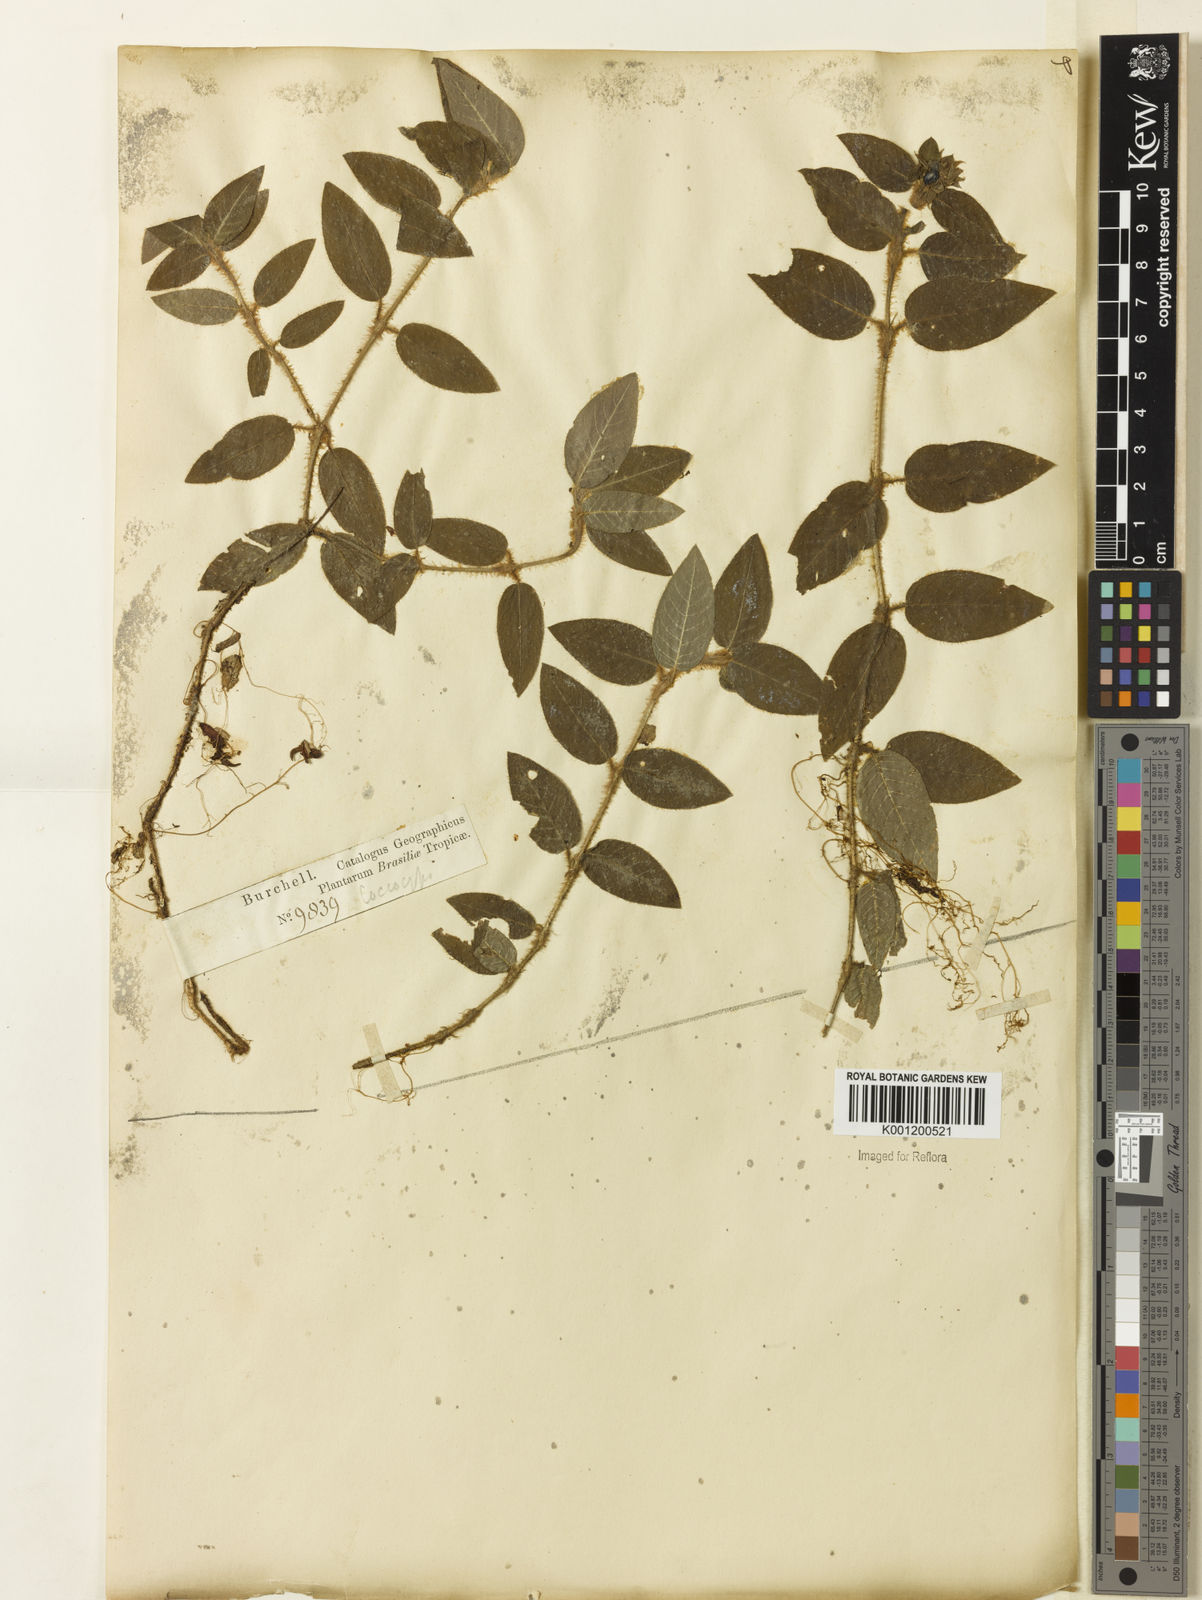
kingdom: Plantae
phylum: Tracheophyta
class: Magnoliopsida
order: Gentianales
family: Rubiaceae
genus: Palicourea
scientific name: Palicourea debilis
